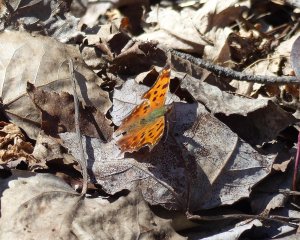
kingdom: Animalia
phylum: Arthropoda
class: Insecta
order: Lepidoptera
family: Nymphalidae
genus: Polygonia
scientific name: Polygonia comma
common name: Eastern Comma
